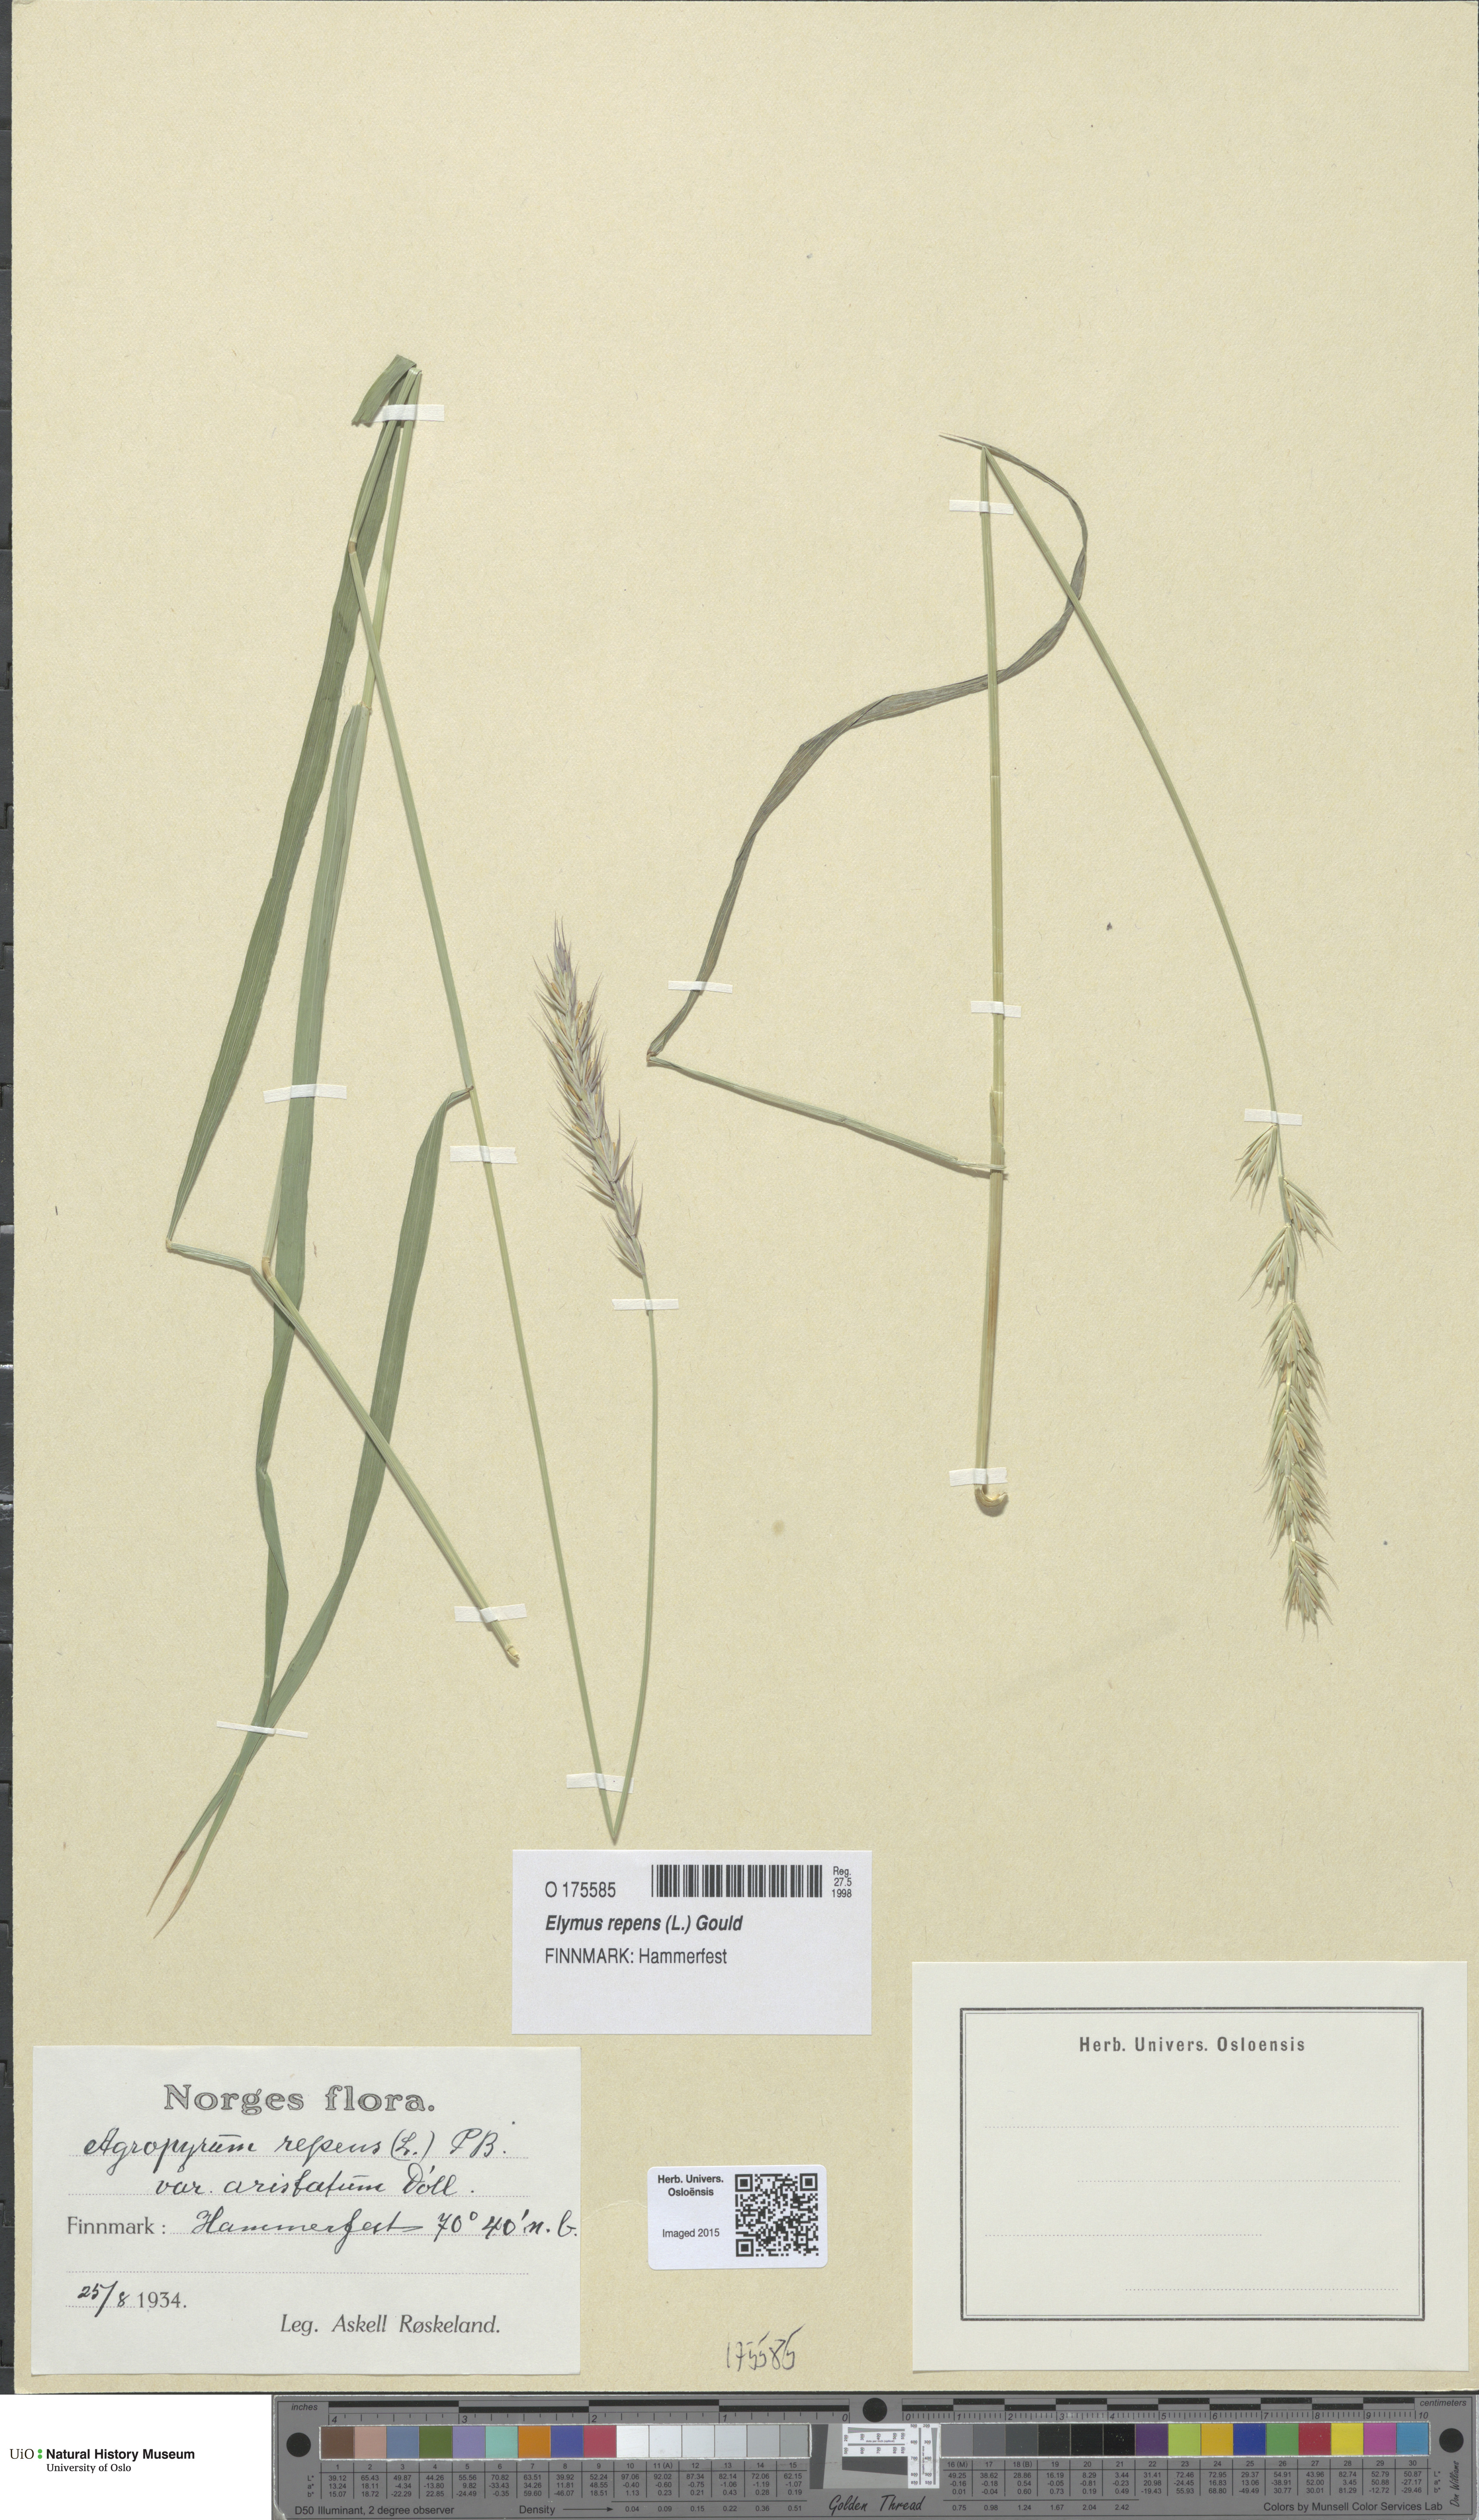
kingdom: Plantae
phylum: Tracheophyta
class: Liliopsida
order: Poales
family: Poaceae
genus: Elymus
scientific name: Elymus repens
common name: Quackgrass
